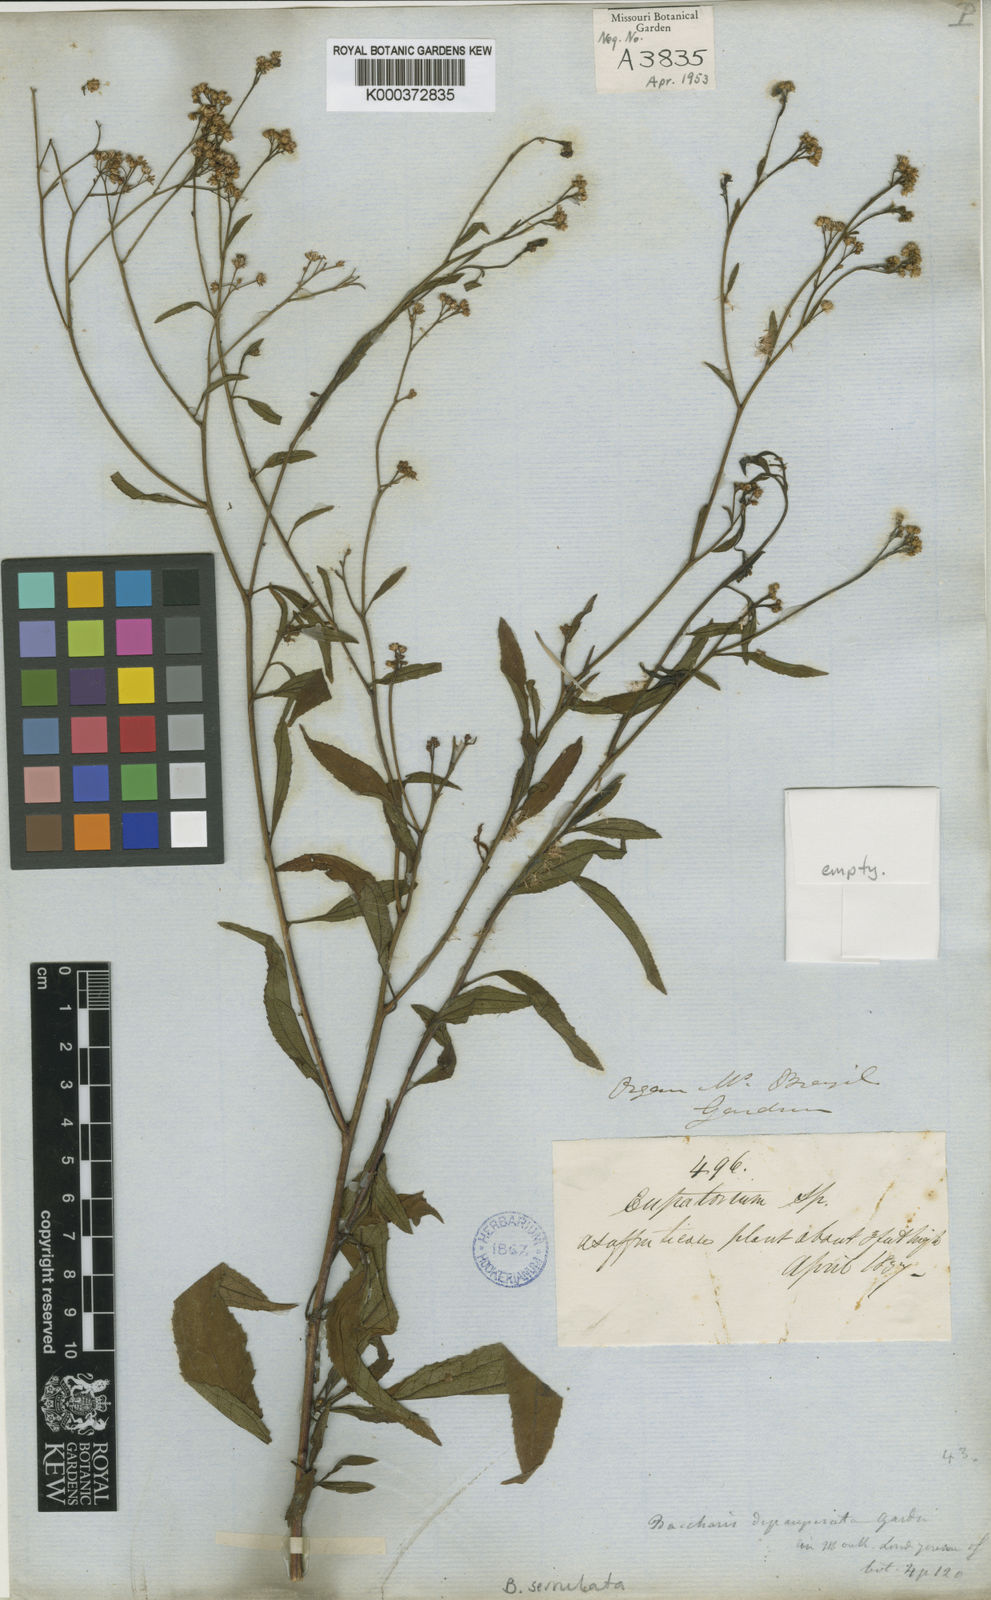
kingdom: Plantae
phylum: Tracheophyta
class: Magnoliopsida
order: Asterales
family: Asteraceae
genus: Baccharis
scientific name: Baccharis serrulata
